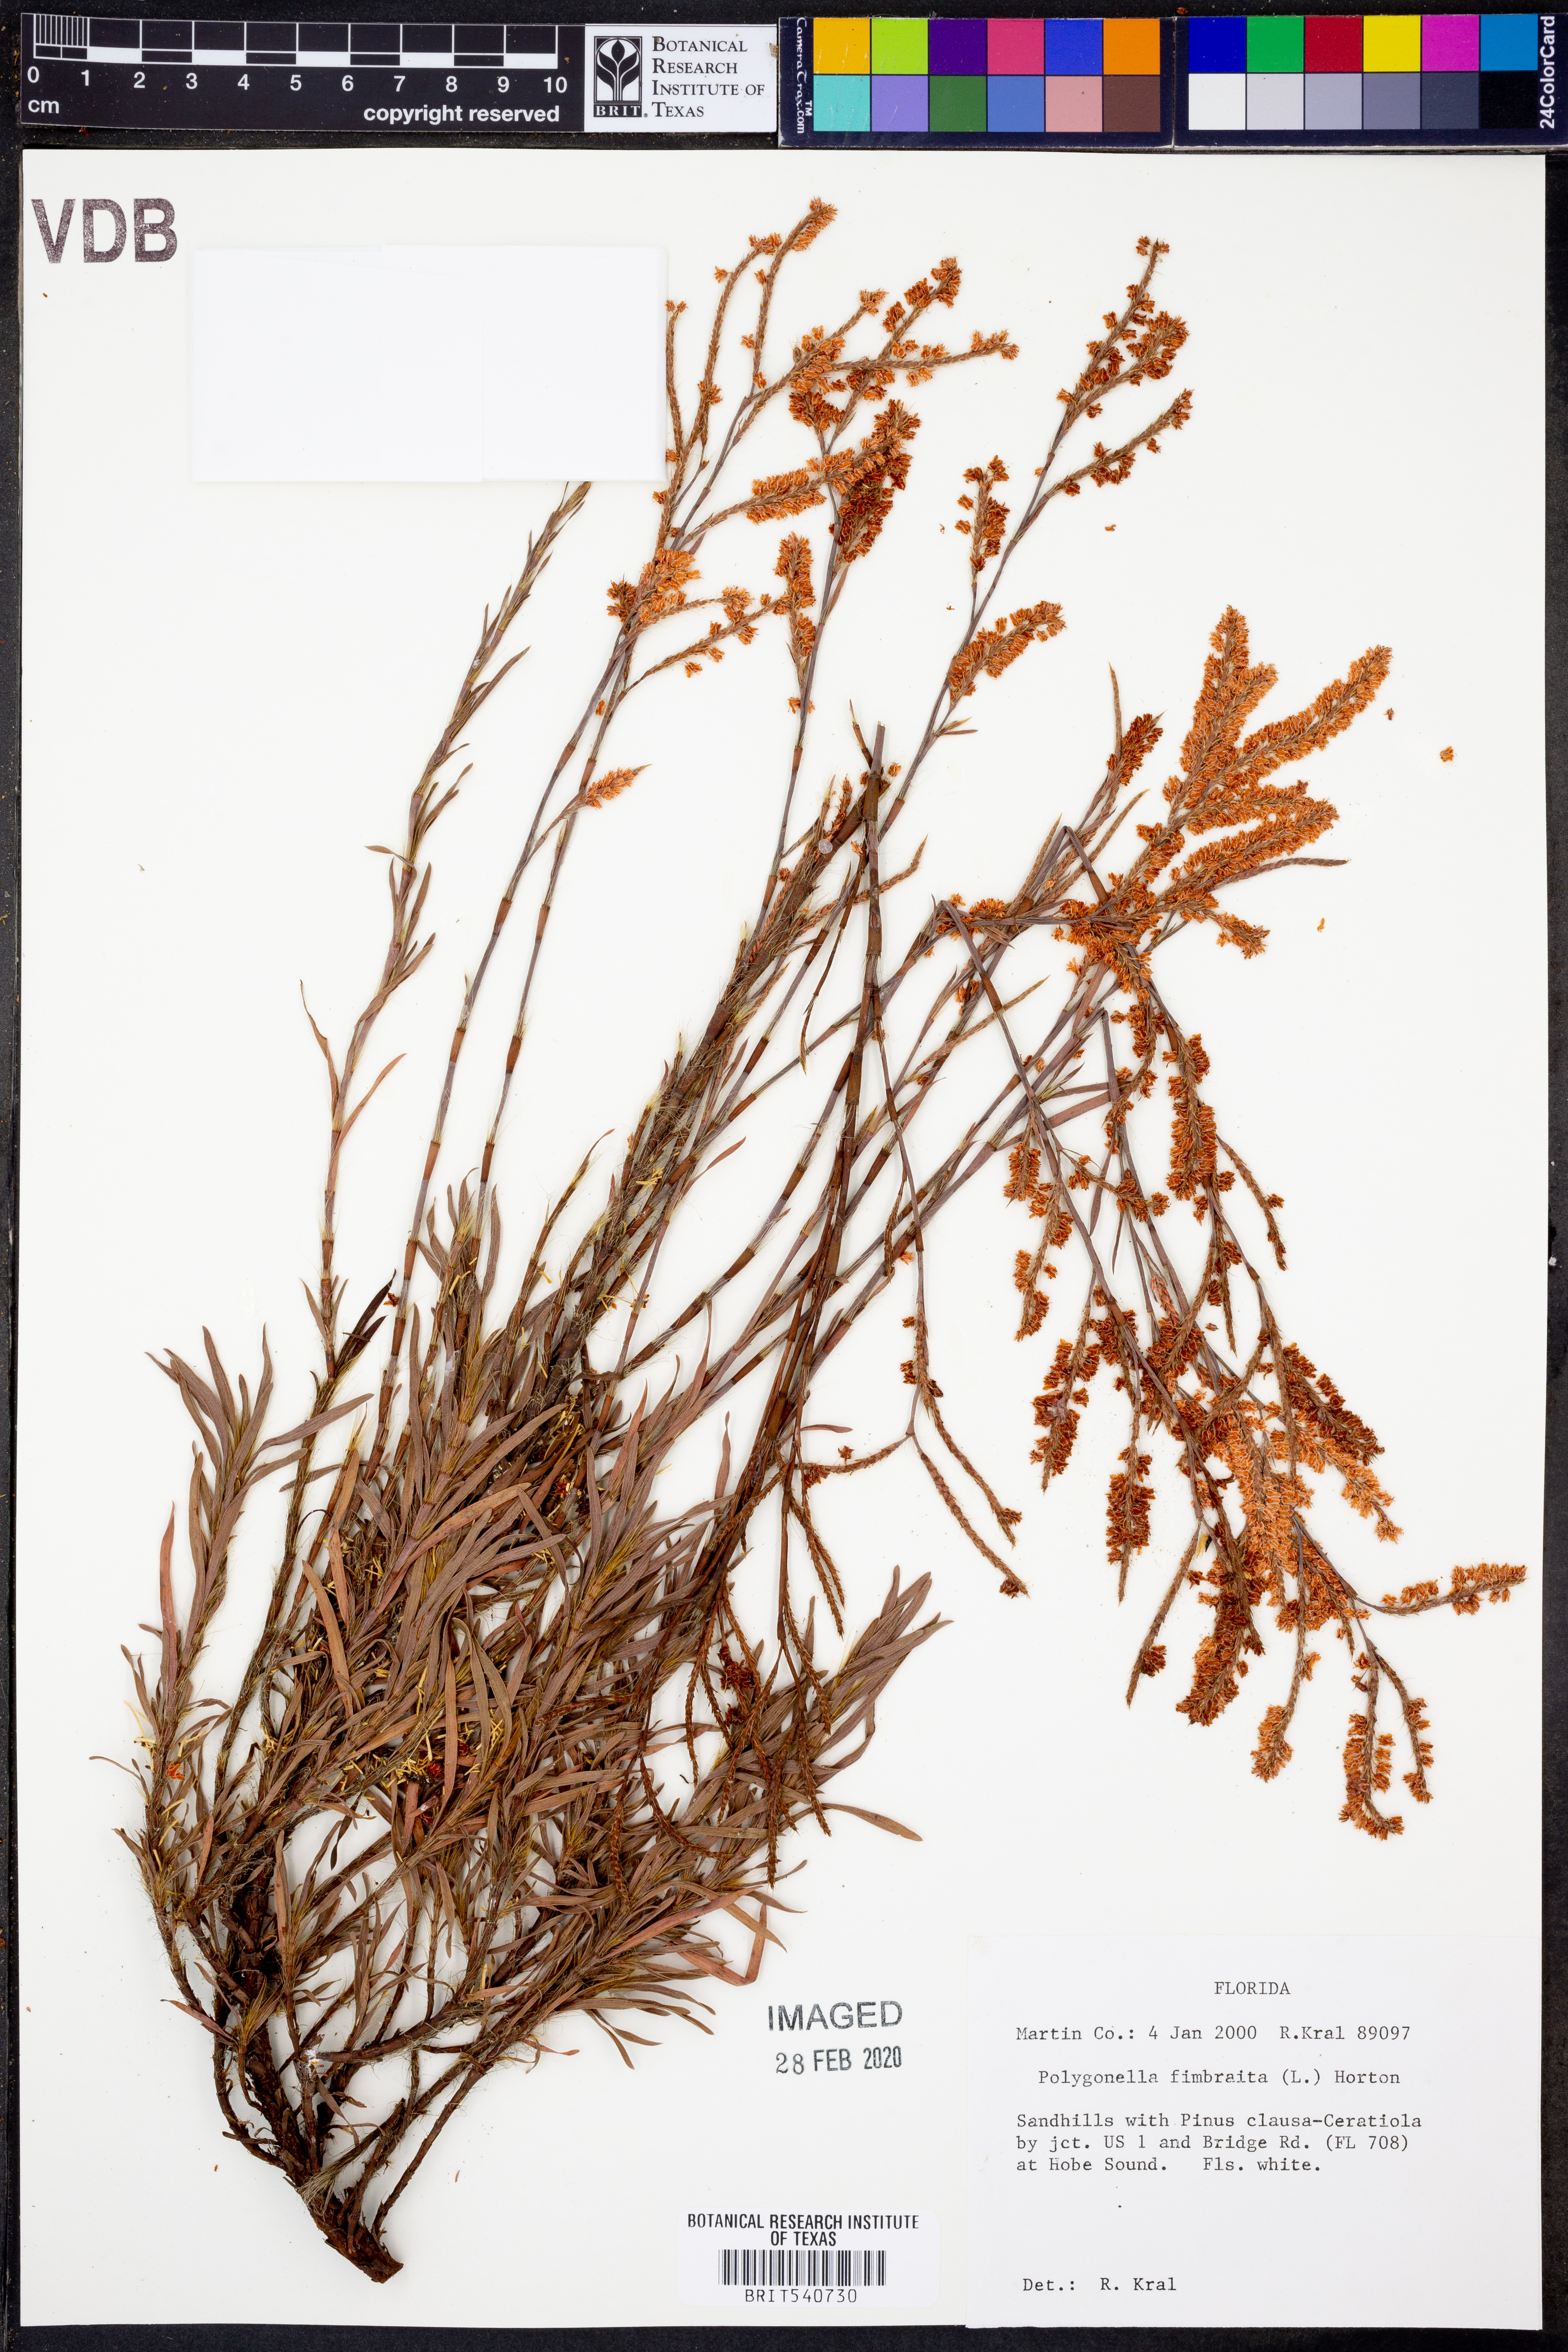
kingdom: Plantae
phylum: Tracheophyta
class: Magnoliopsida
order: Caryophyllales
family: Polygonaceae
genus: Polygonella
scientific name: Polygonella fimbriata
